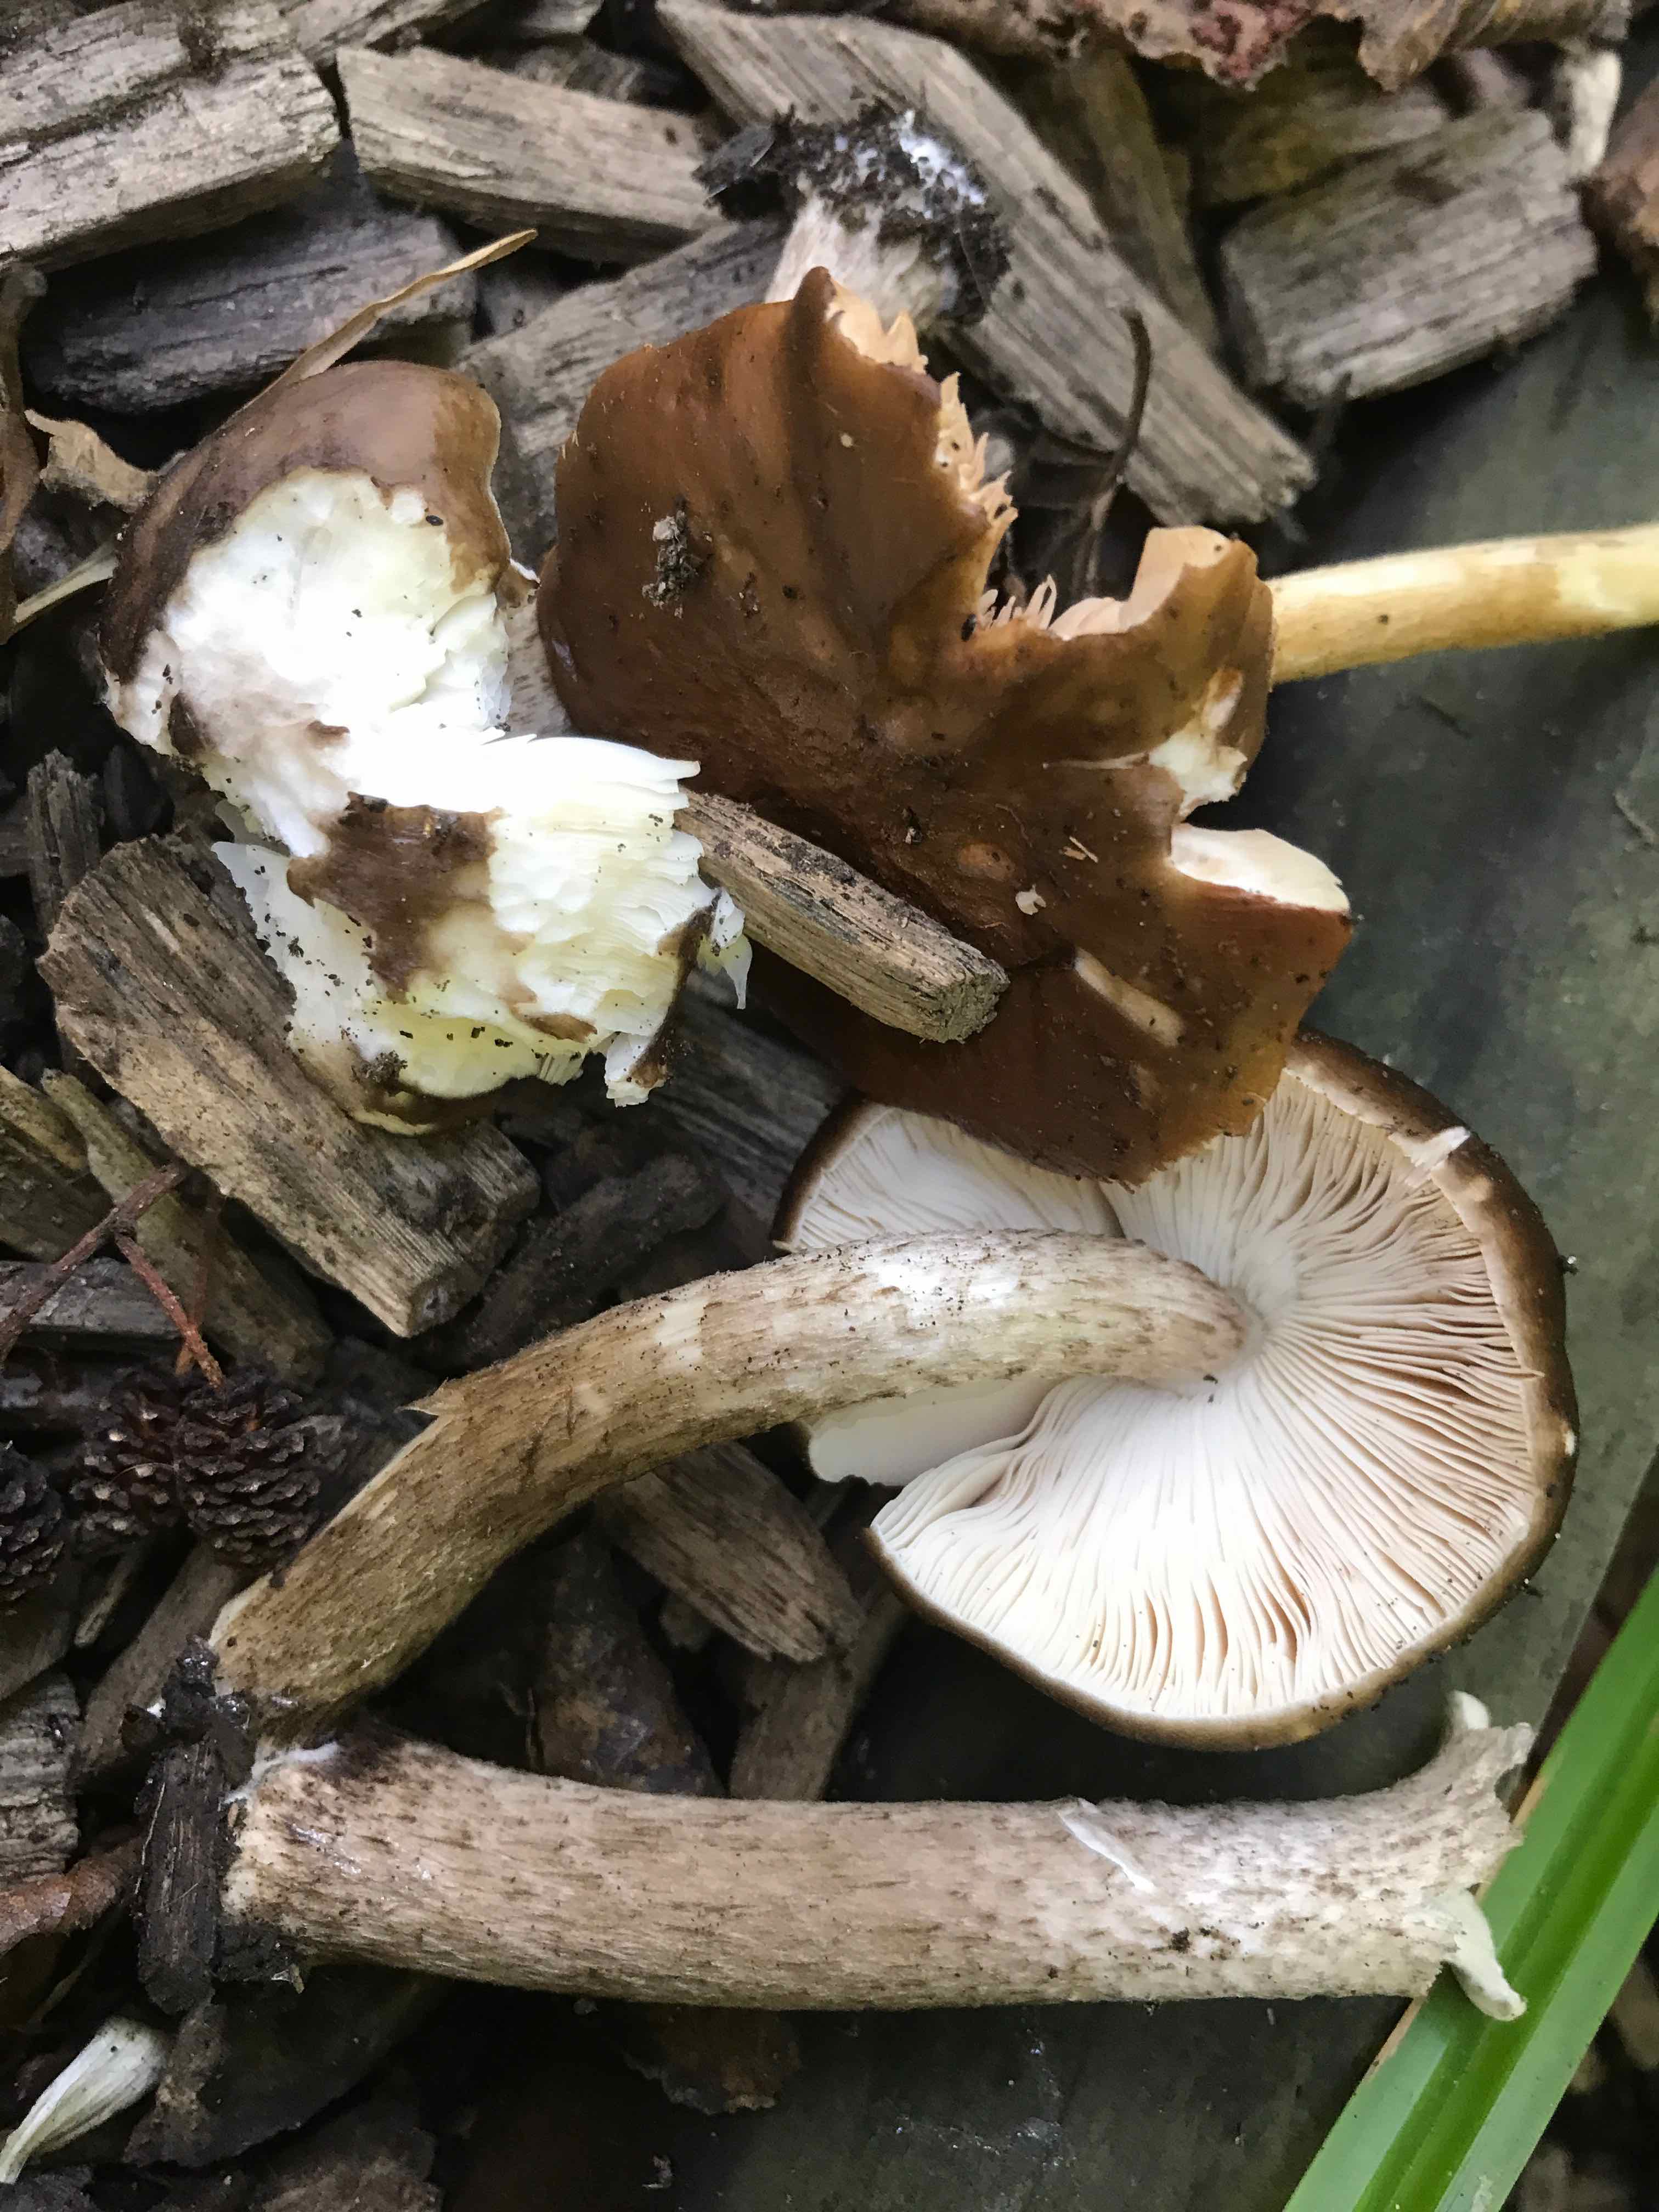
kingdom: Fungi
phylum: Basidiomycota
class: Agaricomycetes
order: Agaricales
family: Pluteaceae
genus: Pluteus
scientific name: Pluteus cervinus
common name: sodfarvet skærmhat
